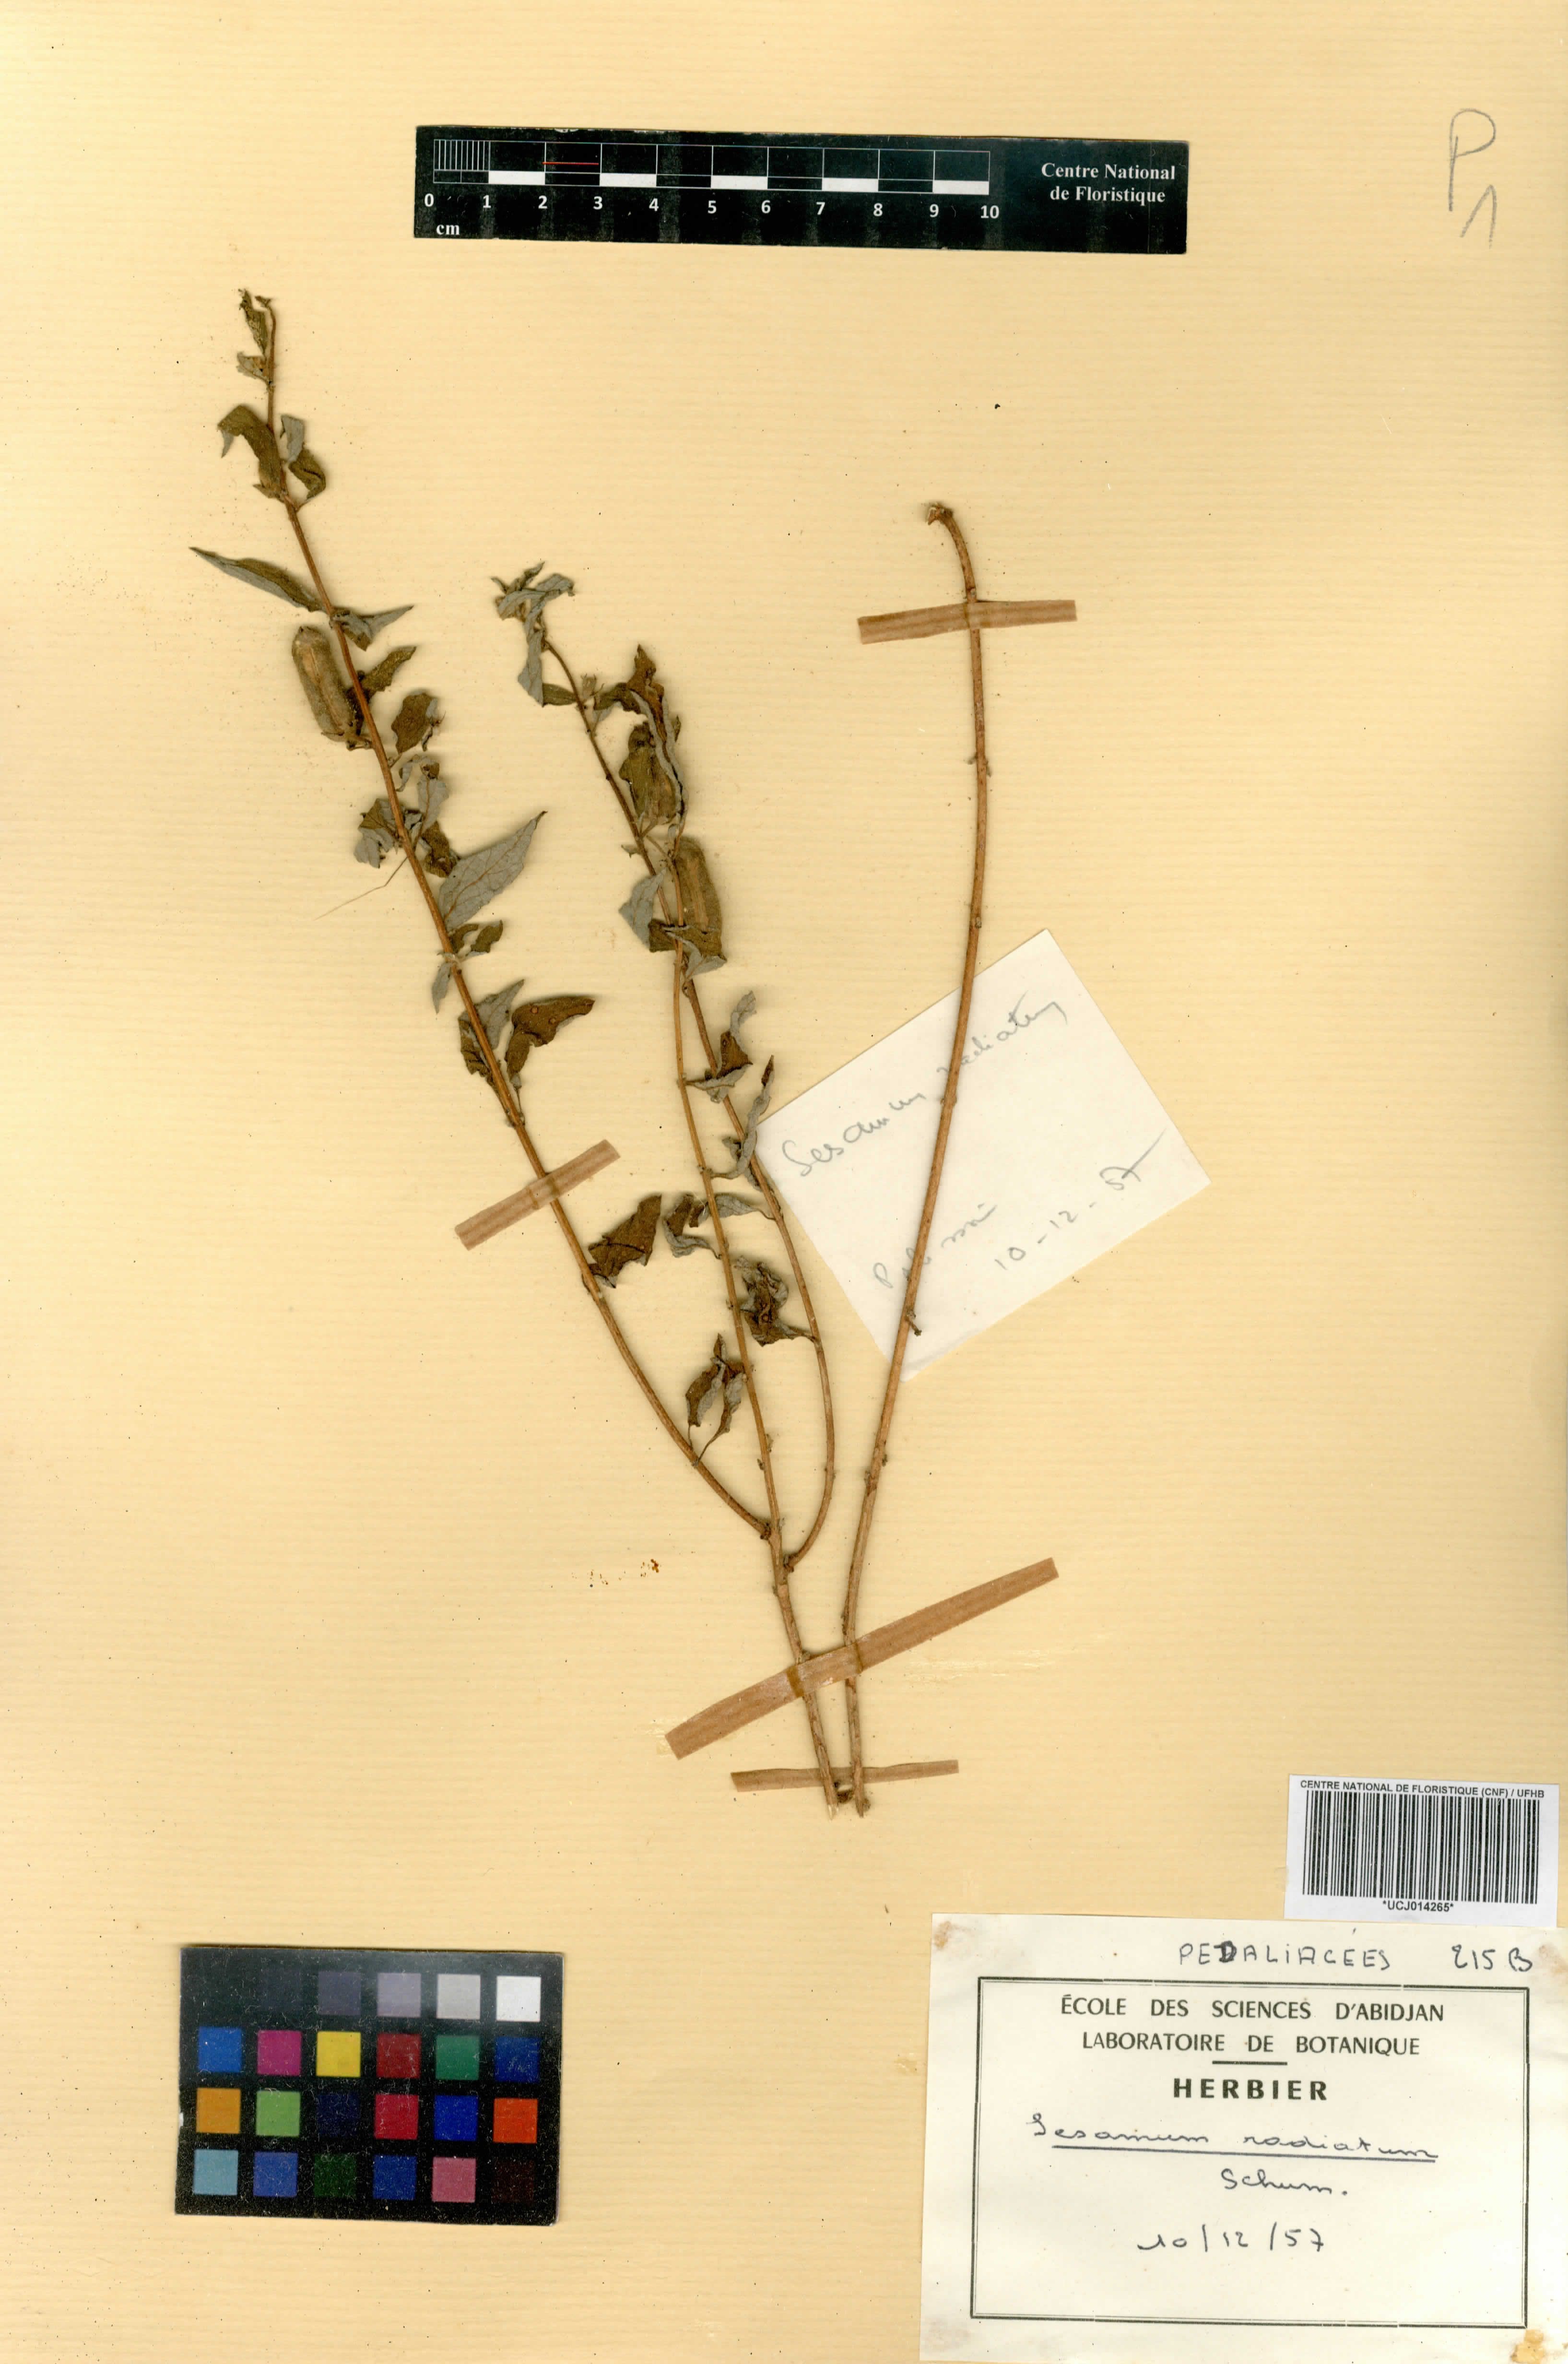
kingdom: Plantae
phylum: Tracheophyta
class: Magnoliopsida
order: Lamiales
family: Pedaliaceae
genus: Sesamum
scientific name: Sesamum radiatum
